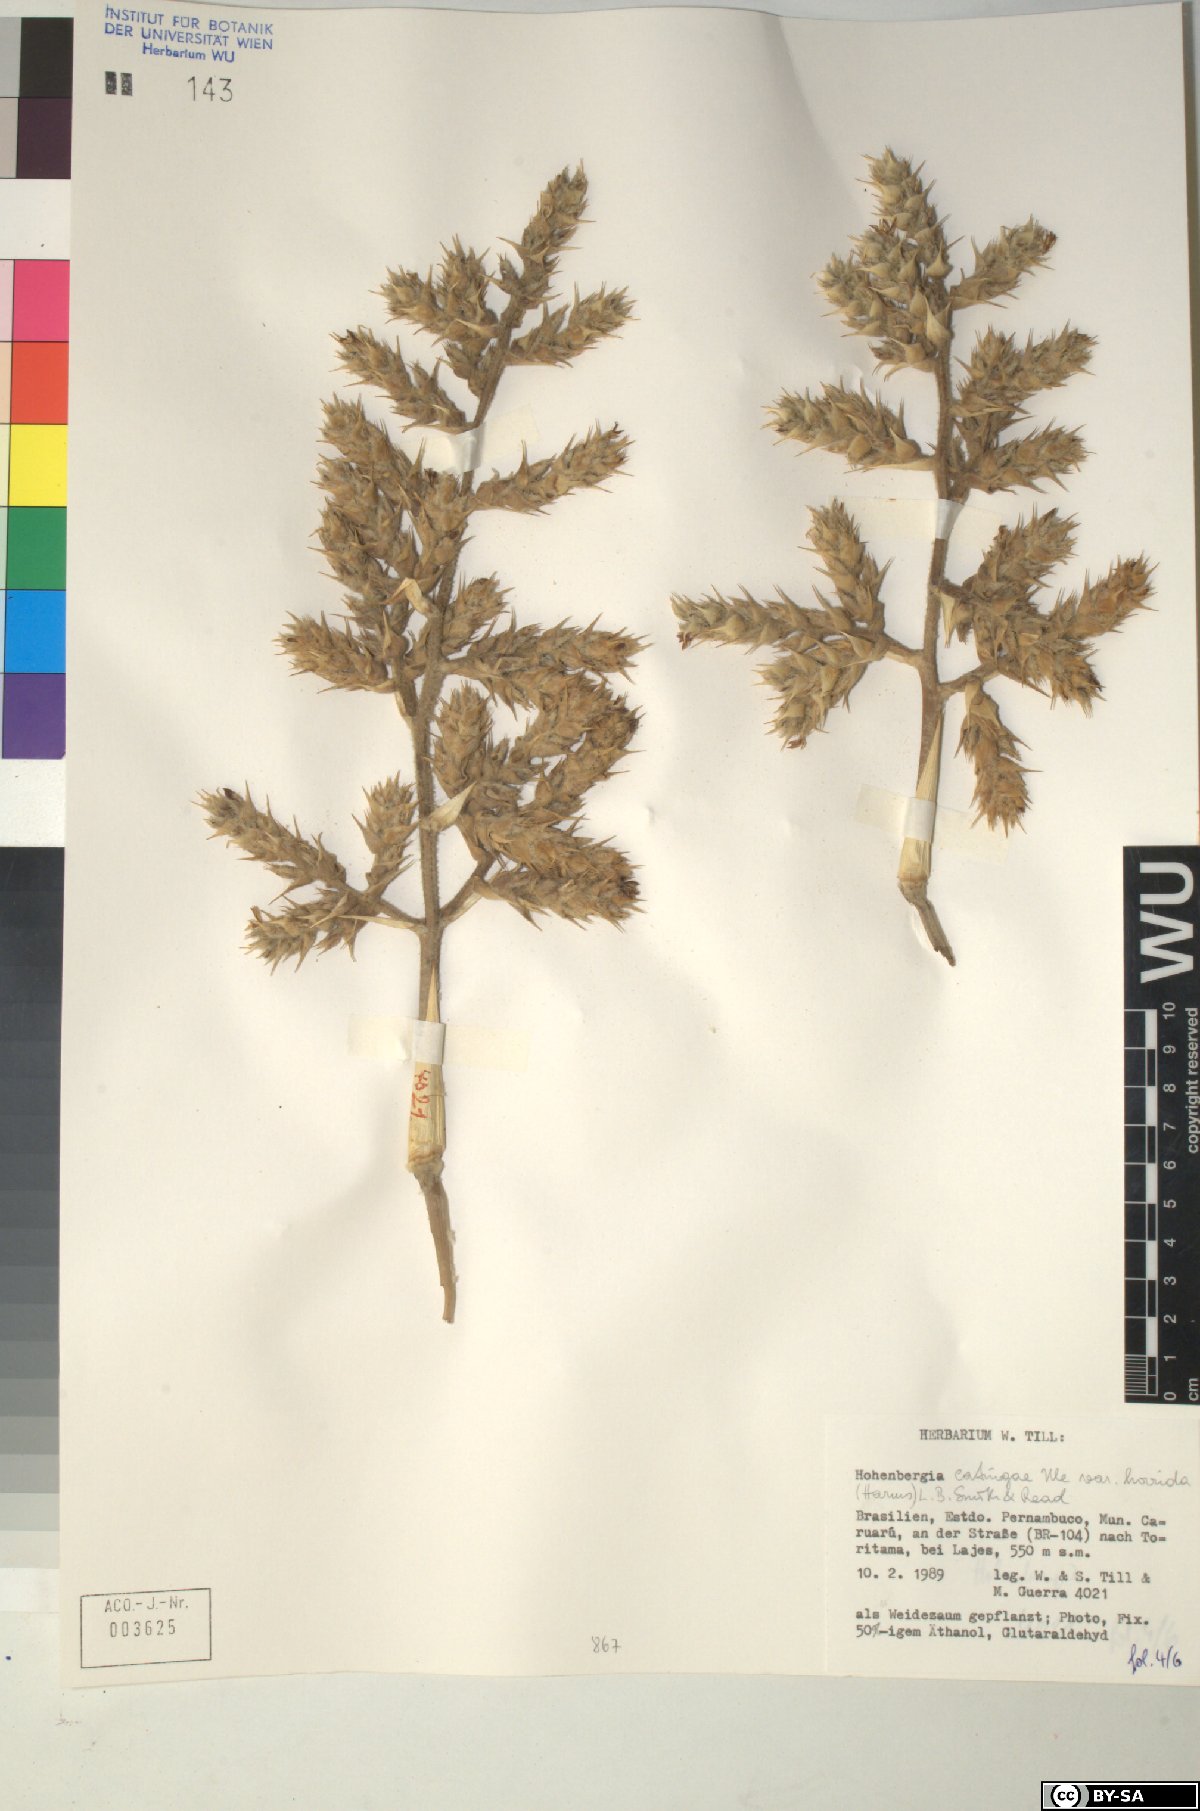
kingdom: Plantae
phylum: Tracheophyta
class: Liliopsida
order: Poales
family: Bromeliaceae
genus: Hohenbergia
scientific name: Hohenbergia
